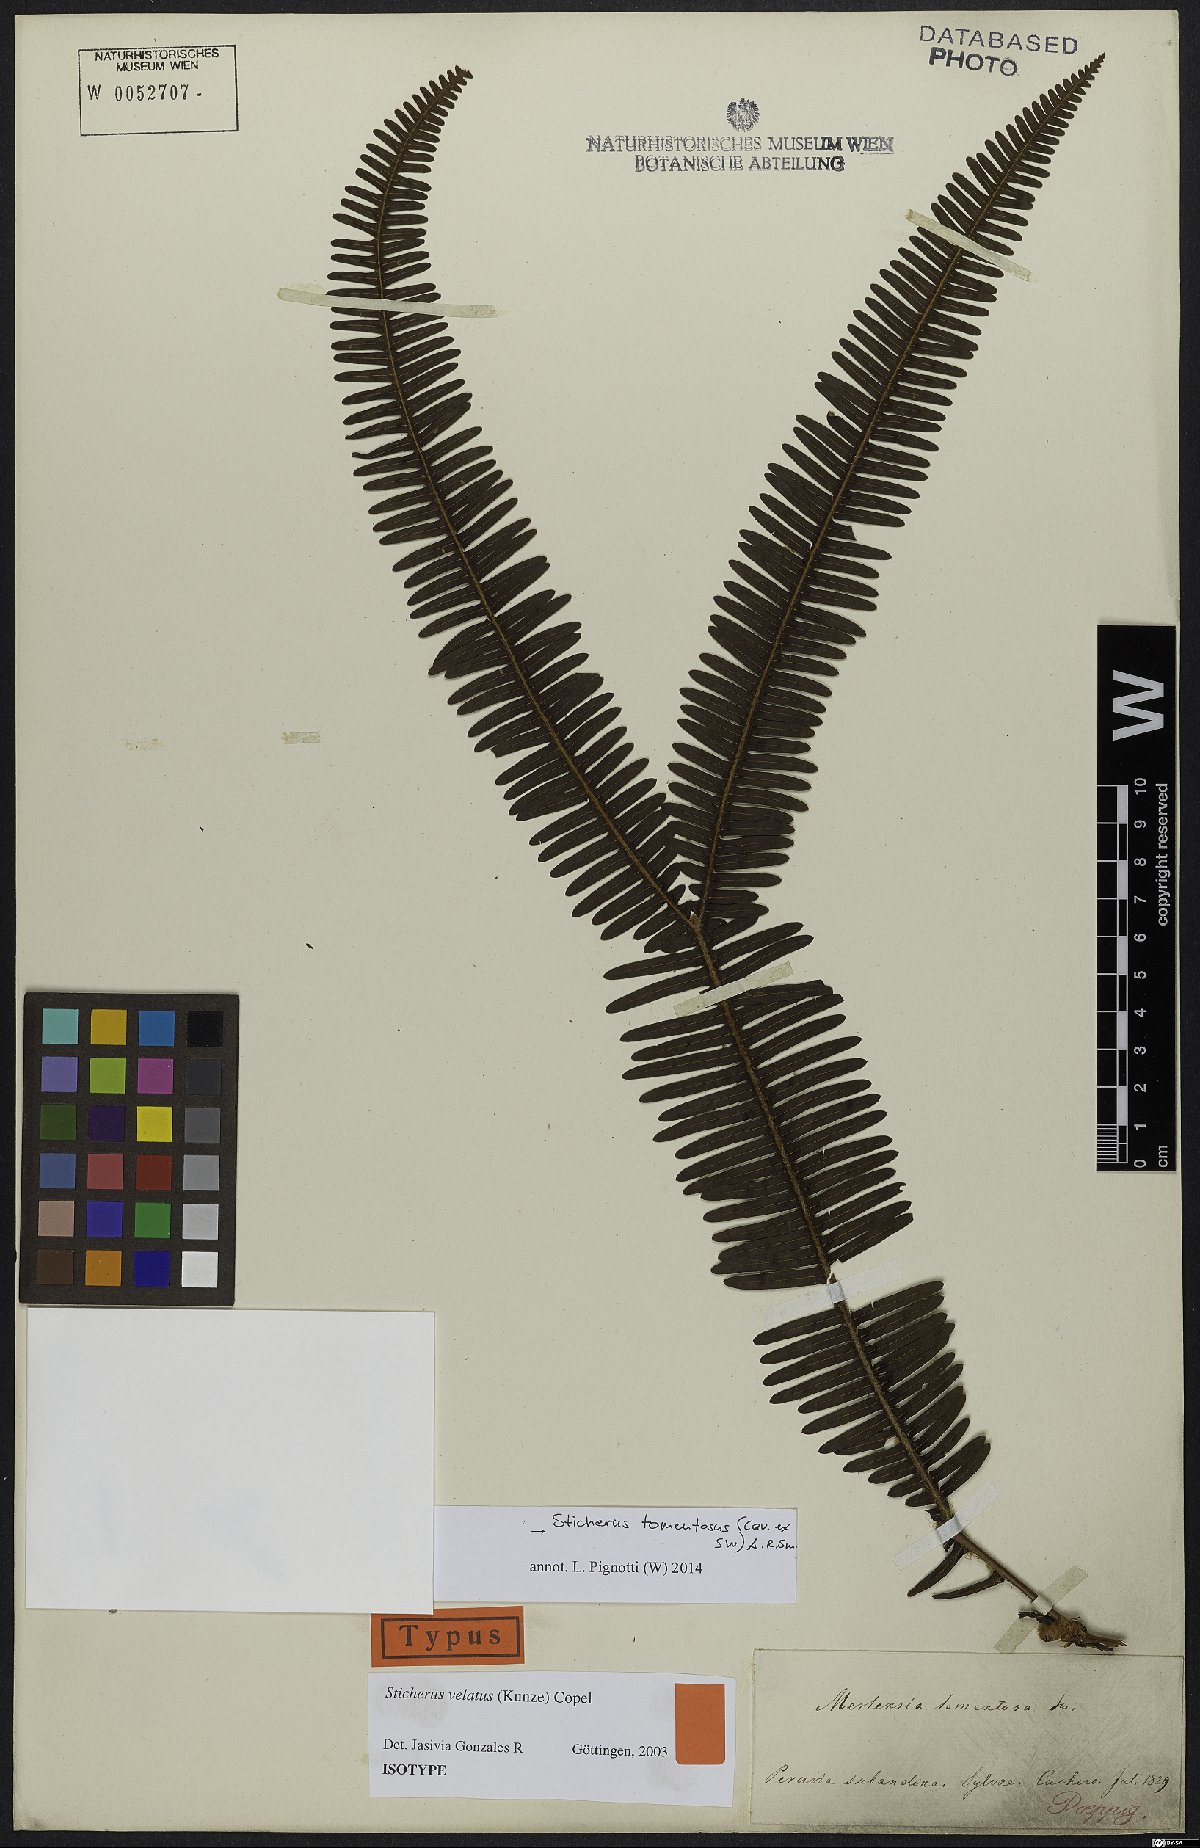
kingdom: Plantae
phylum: Tracheophyta
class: Polypodiopsida
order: Gleicheniales
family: Gleicheniaceae
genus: Sticherus
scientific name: Sticherus tomentosus
